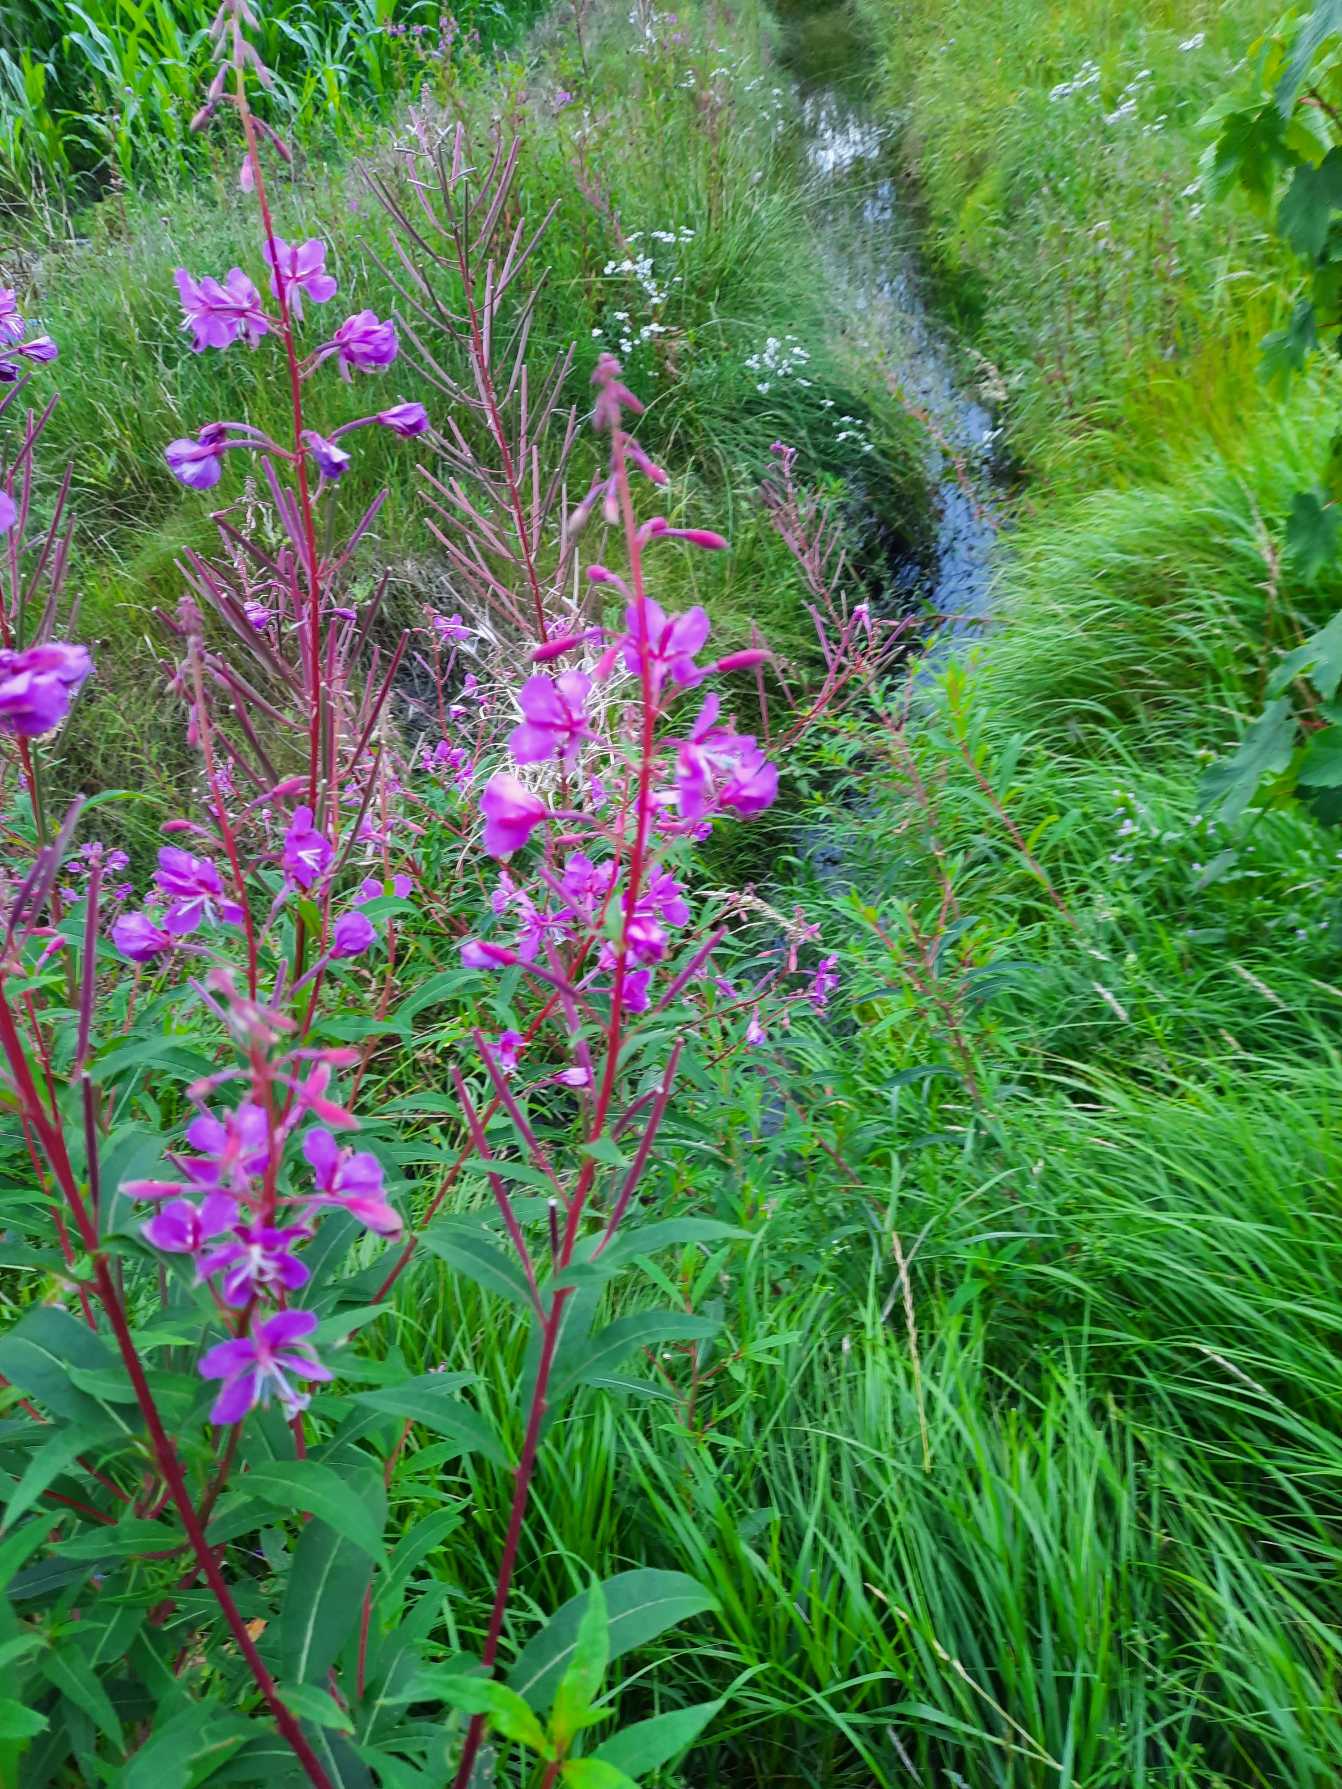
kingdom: Plantae
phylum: Tracheophyta
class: Magnoliopsida
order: Myrtales
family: Onagraceae
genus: Chamaenerion
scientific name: Chamaenerion angustifolium
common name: Gederams
